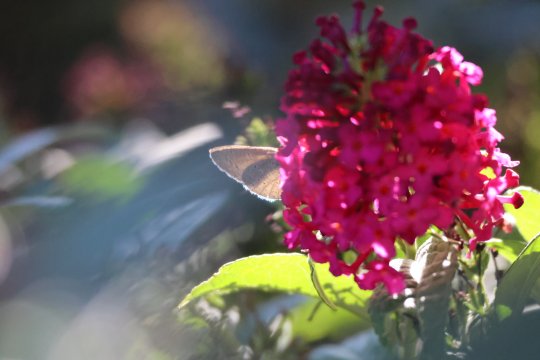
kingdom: Animalia
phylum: Arthropoda
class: Insecta
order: Lepidoptera
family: Lycaenidae
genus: Celastrina
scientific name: Celastrina
